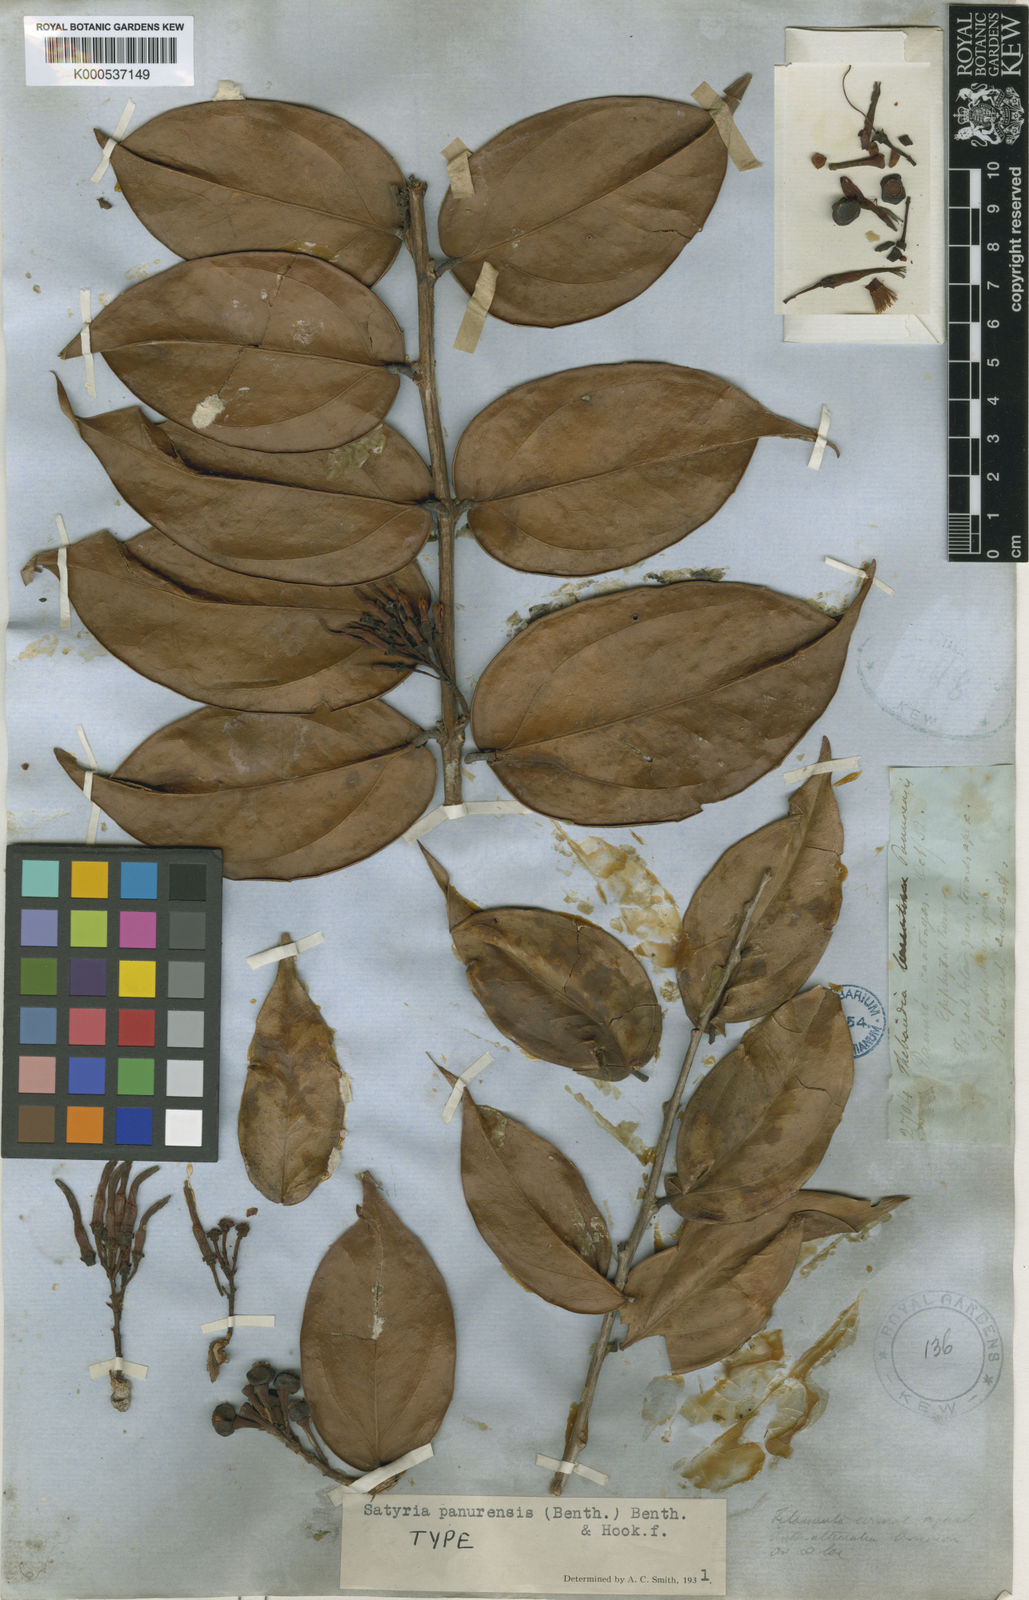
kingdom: Plantae
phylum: Tracheophyta
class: Magnoliopsida
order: Ericales
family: Ericaceae
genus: Satyria
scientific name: Satyria panurensis
